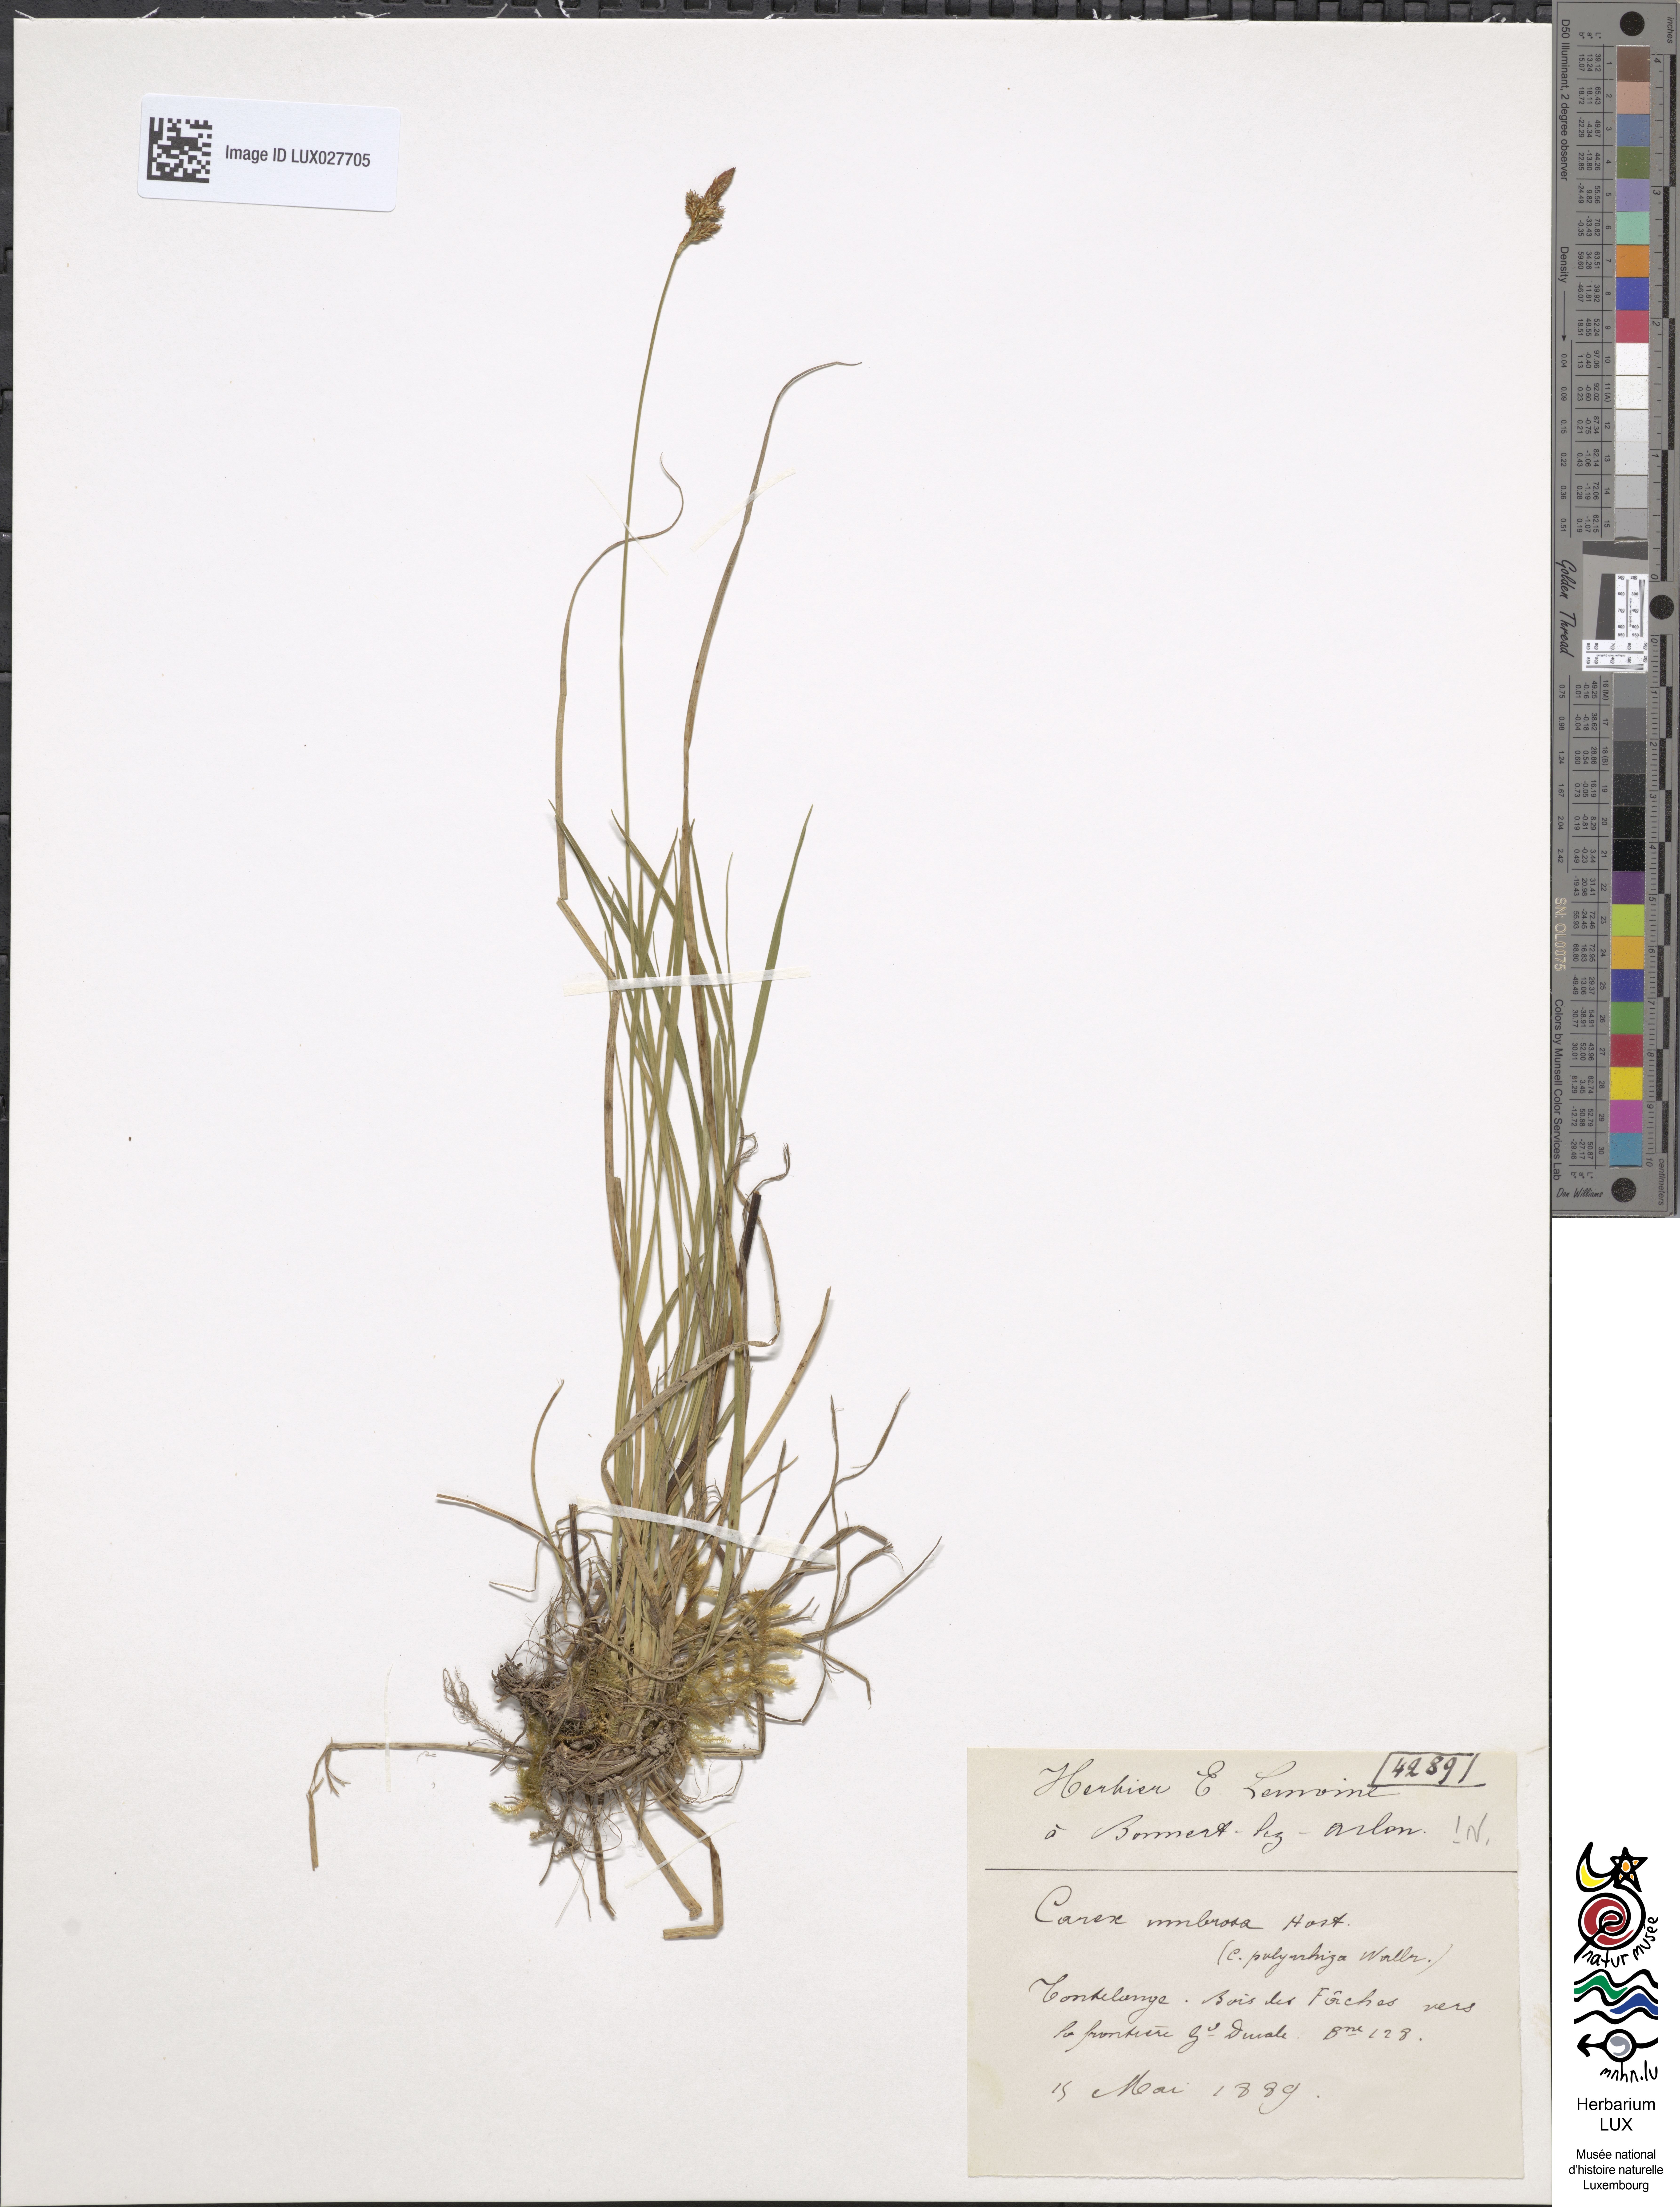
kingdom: Plantae
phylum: Tracheophyta
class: Liliopsida
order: Poales
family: Cyperaceae
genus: Carex
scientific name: Carex umbrosa
